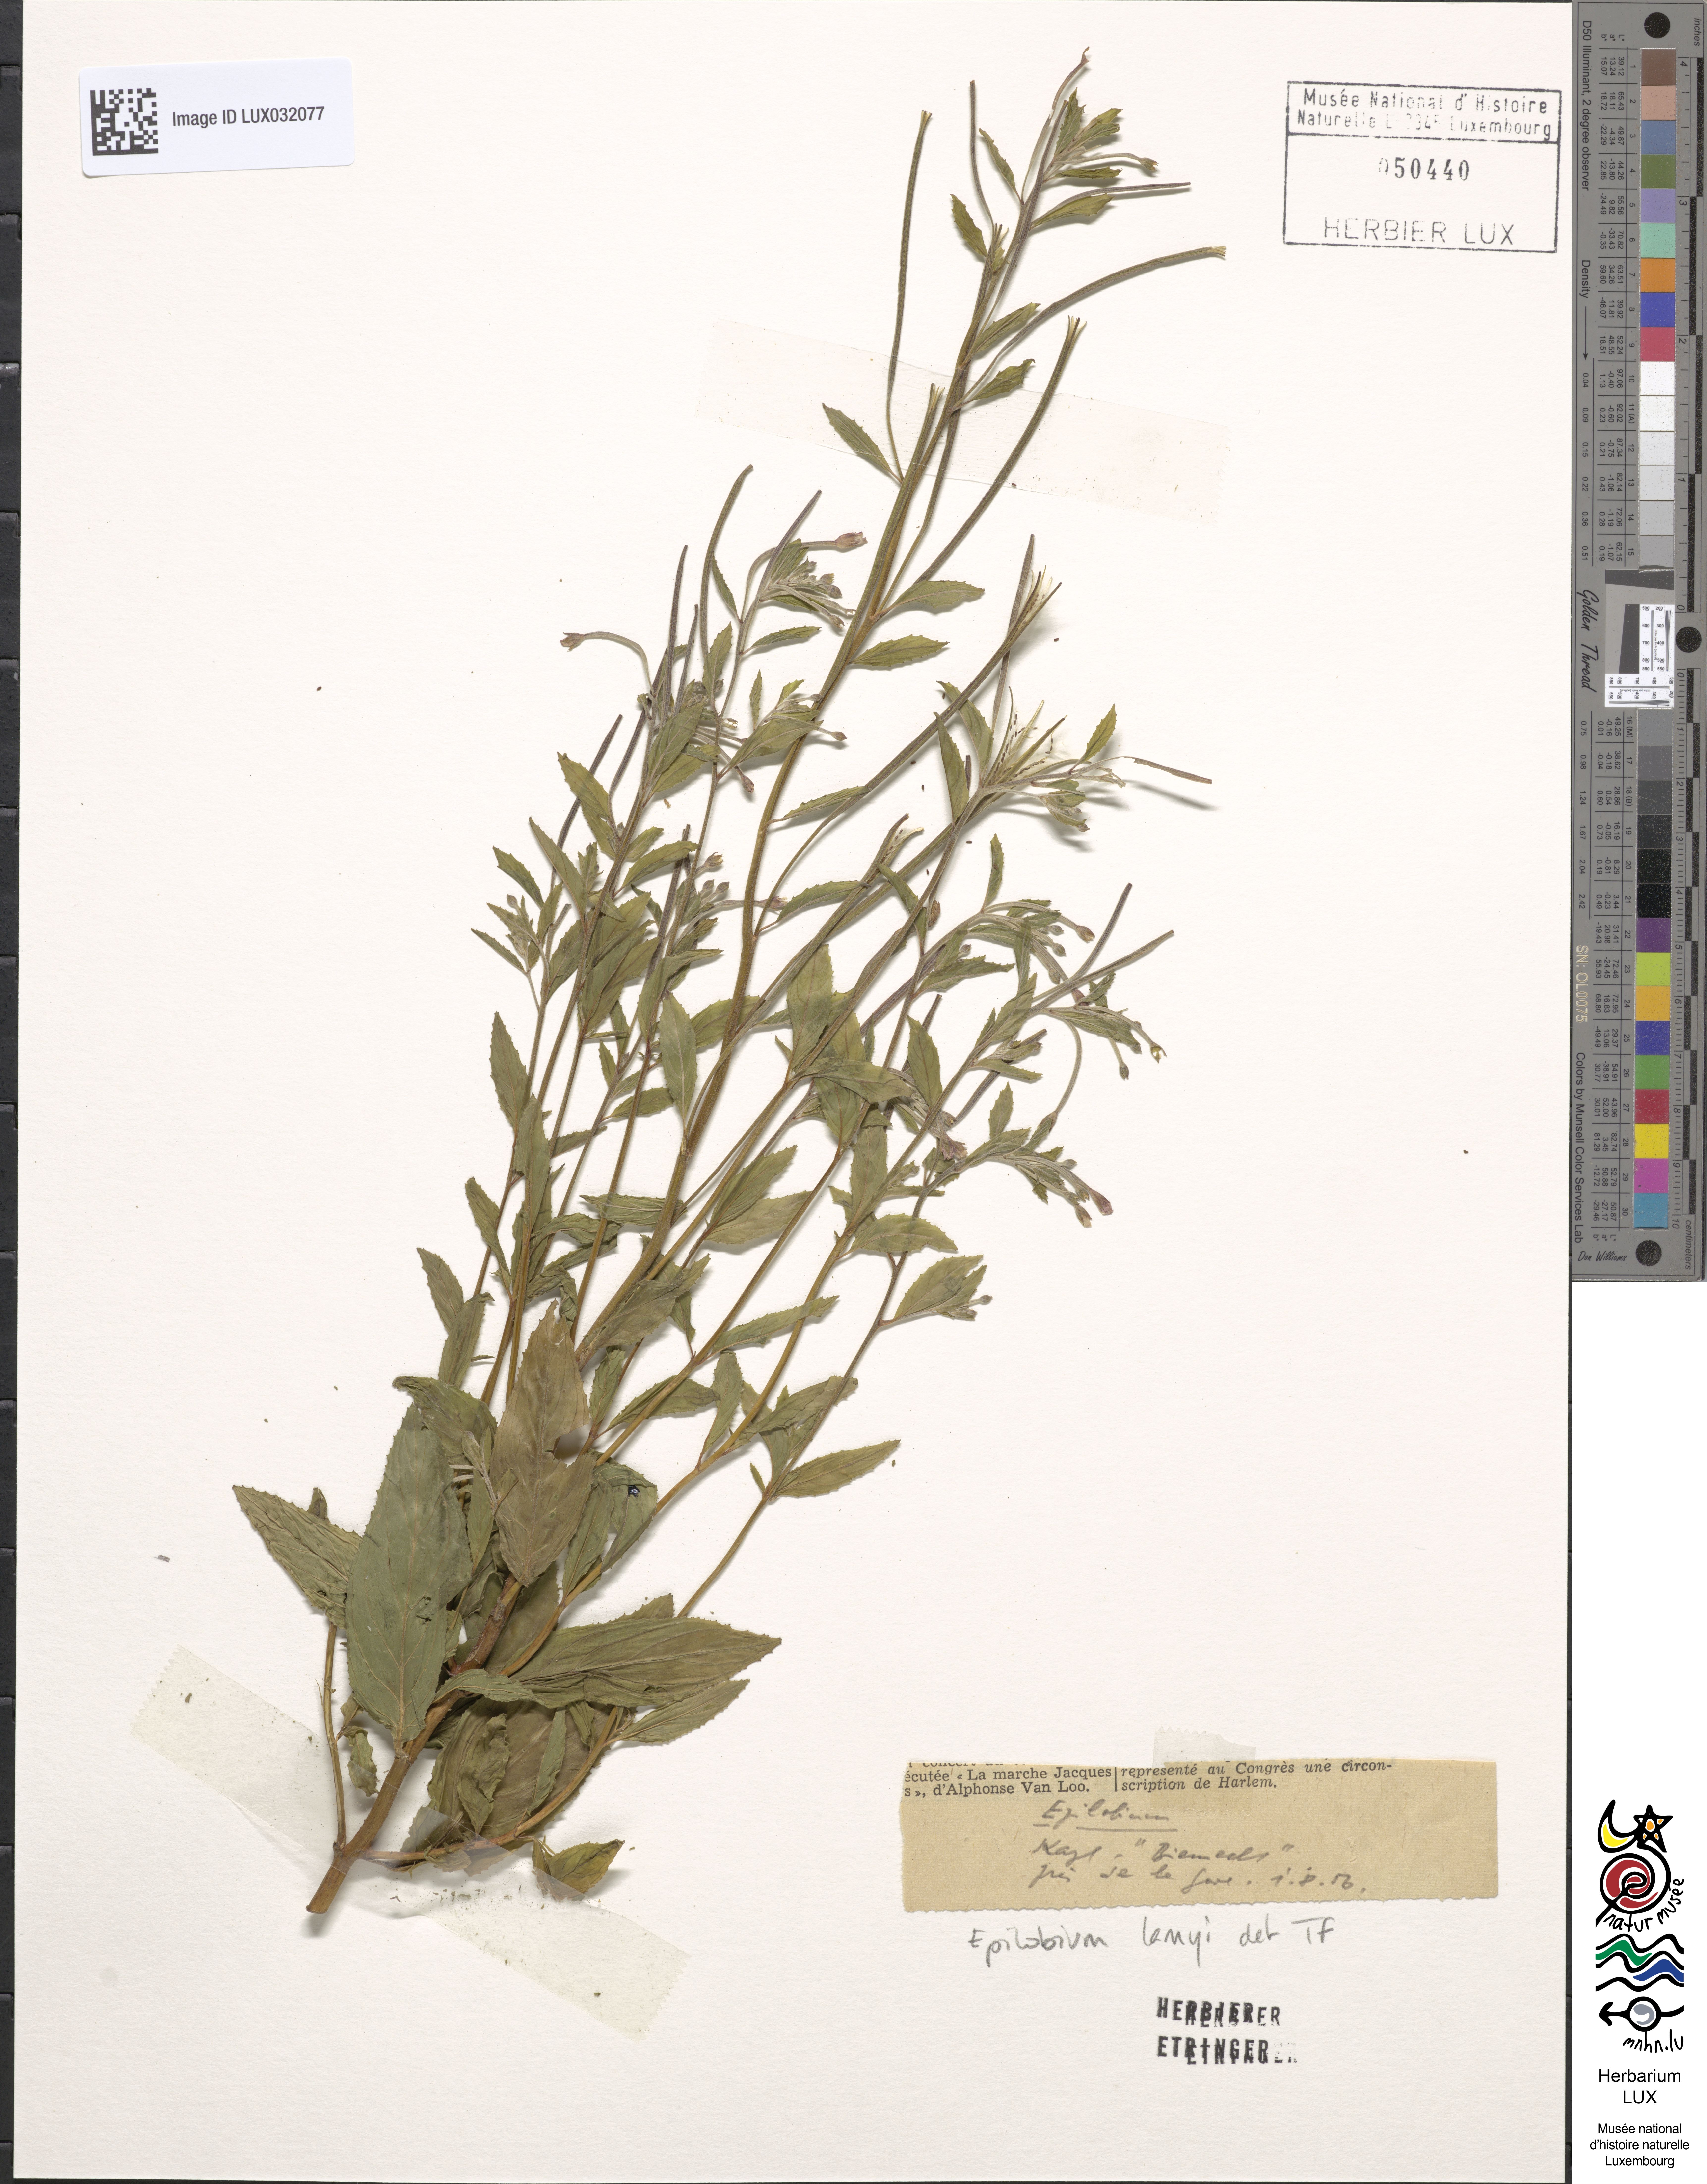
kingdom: Plantae
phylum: Tracheophyta
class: Magnoliopsida
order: Myrtales
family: Onagraceae
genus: Epilobium
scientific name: Epilobium lamyi
